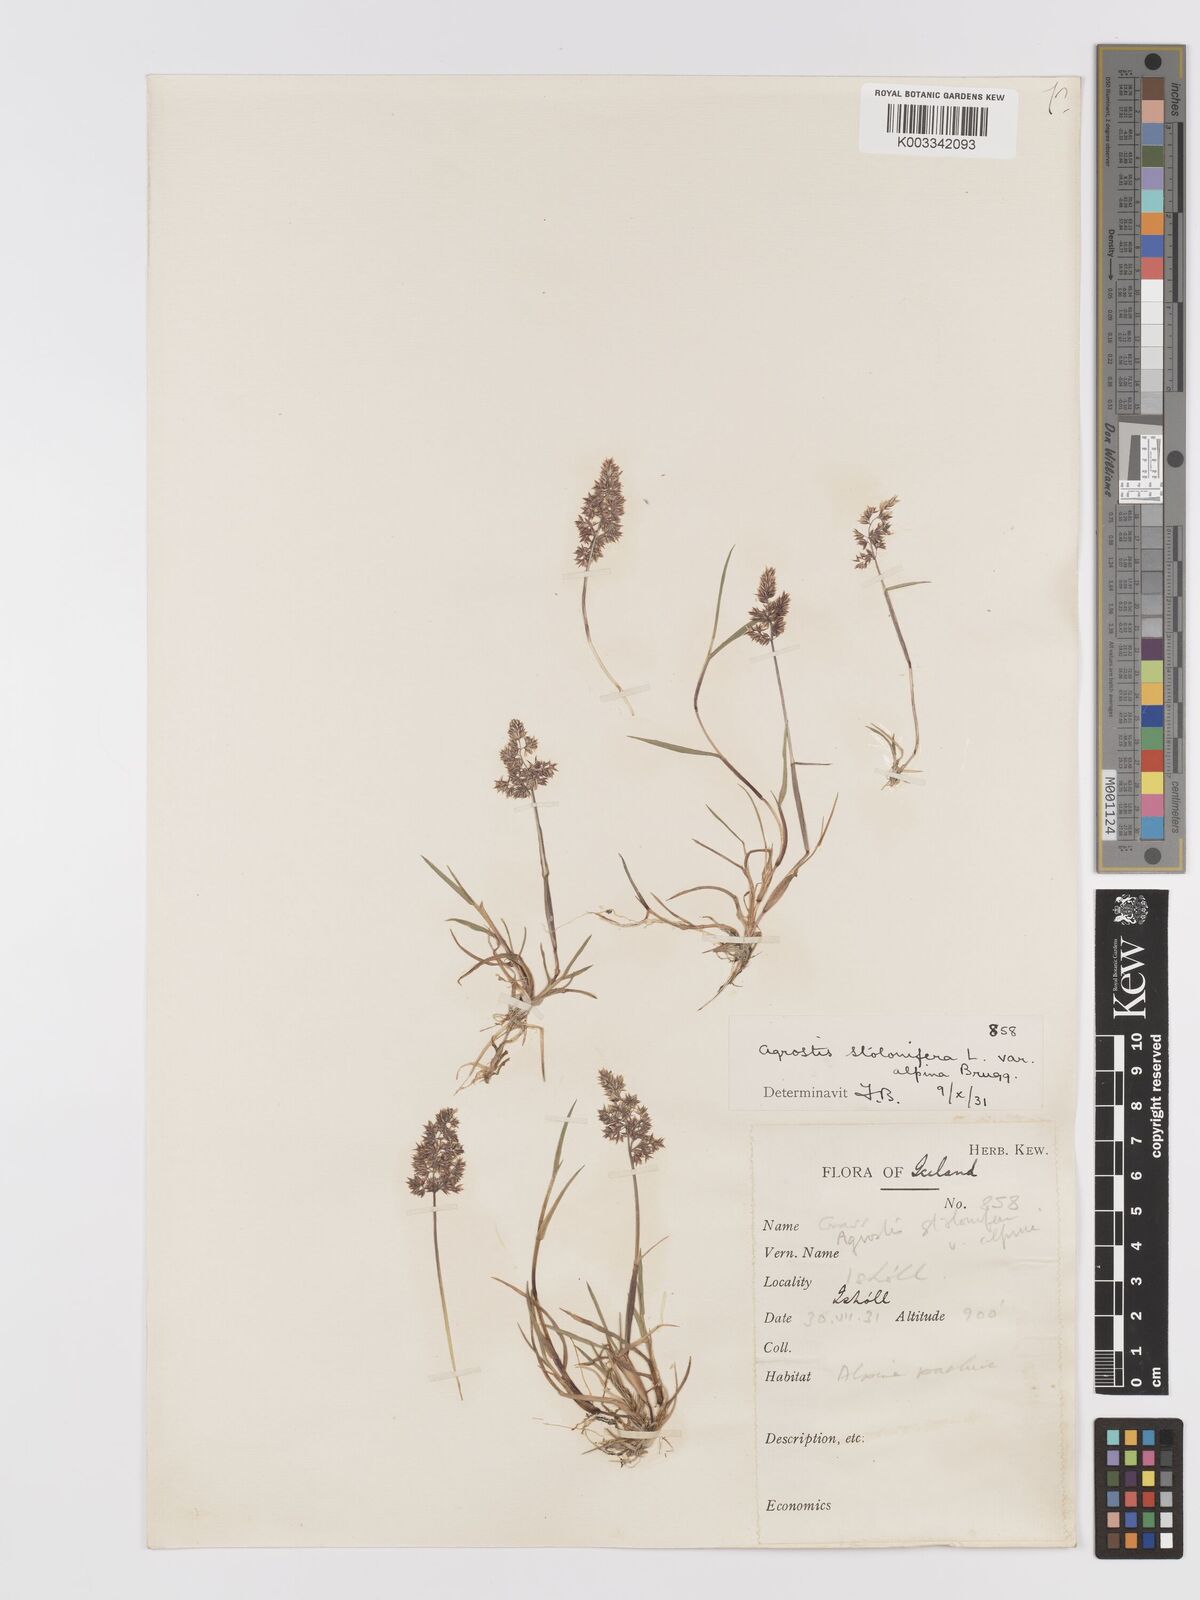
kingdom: Plantae
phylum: Tracheophyta
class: Liliopsida
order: Poales
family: Poaceae
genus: Agrostis
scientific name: Agrostis stolonifera
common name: Creeping bentgrass
